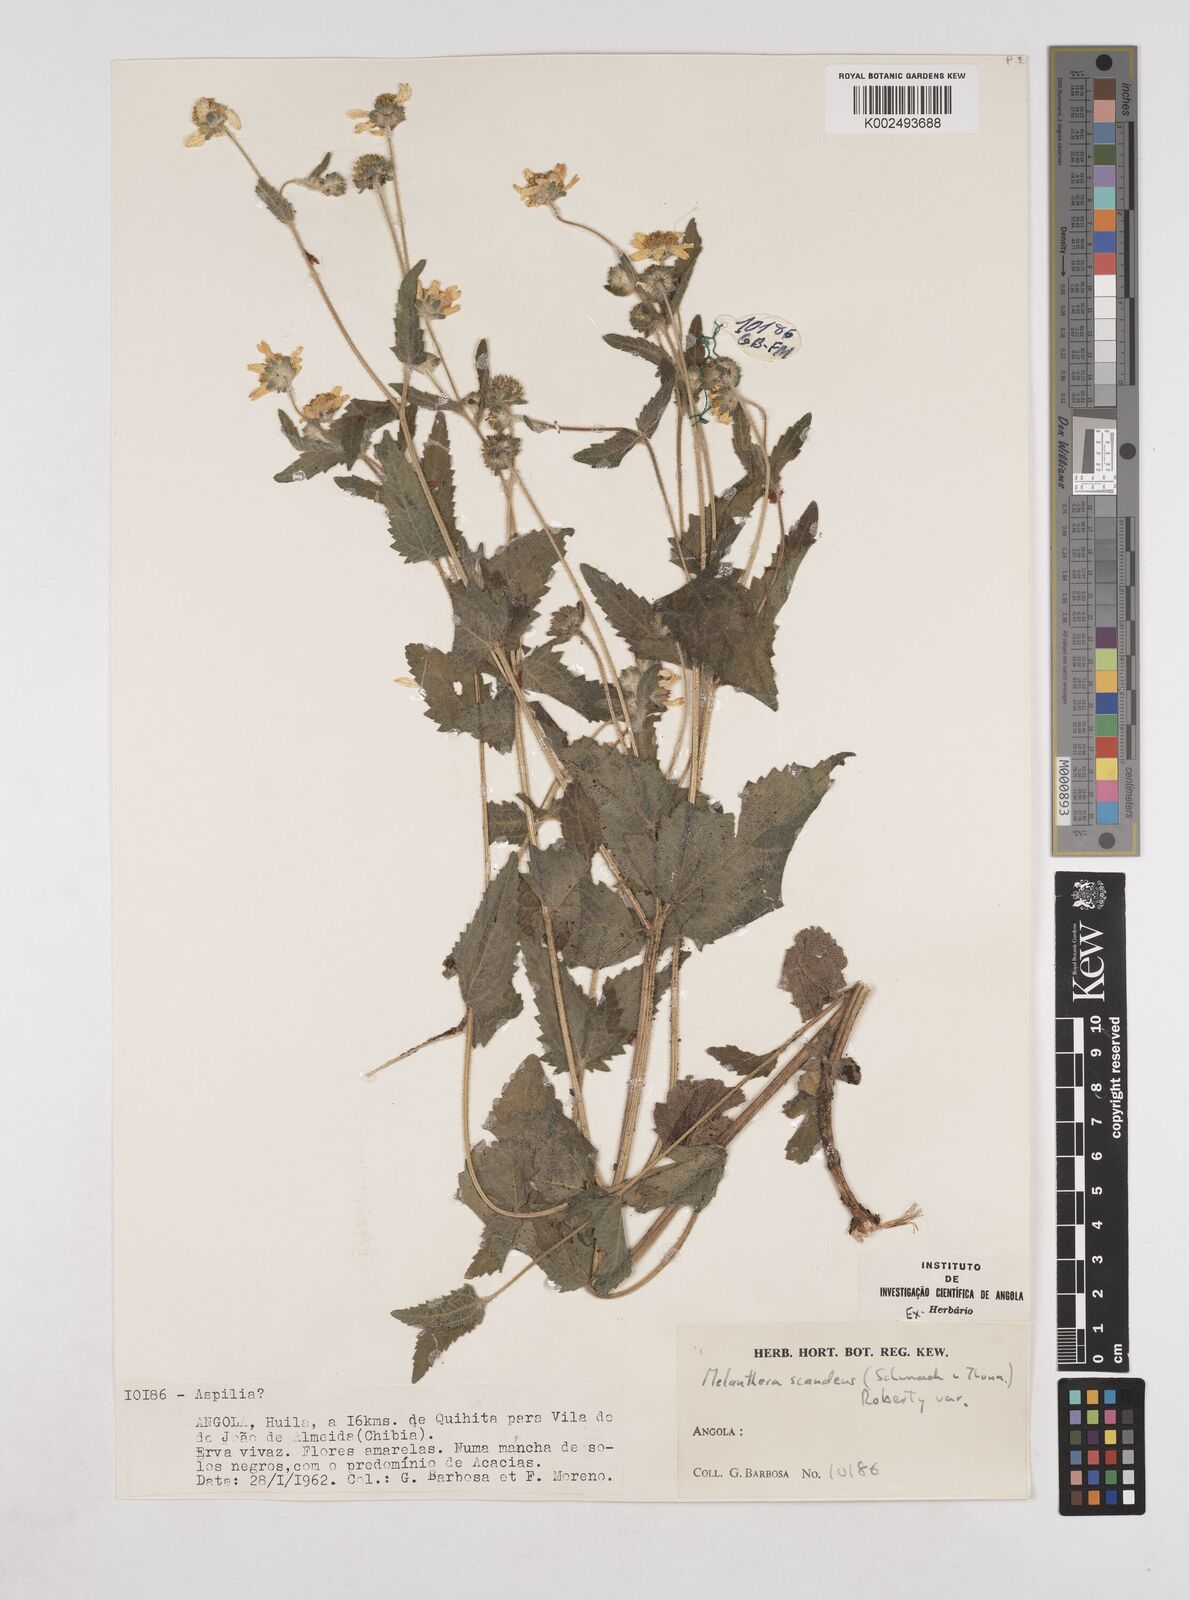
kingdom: Plantae
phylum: Tracheophyta
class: Magnoliopsida
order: Asterales
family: Asteraceae
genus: Lipotriche
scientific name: Lipotriche marlothiana
